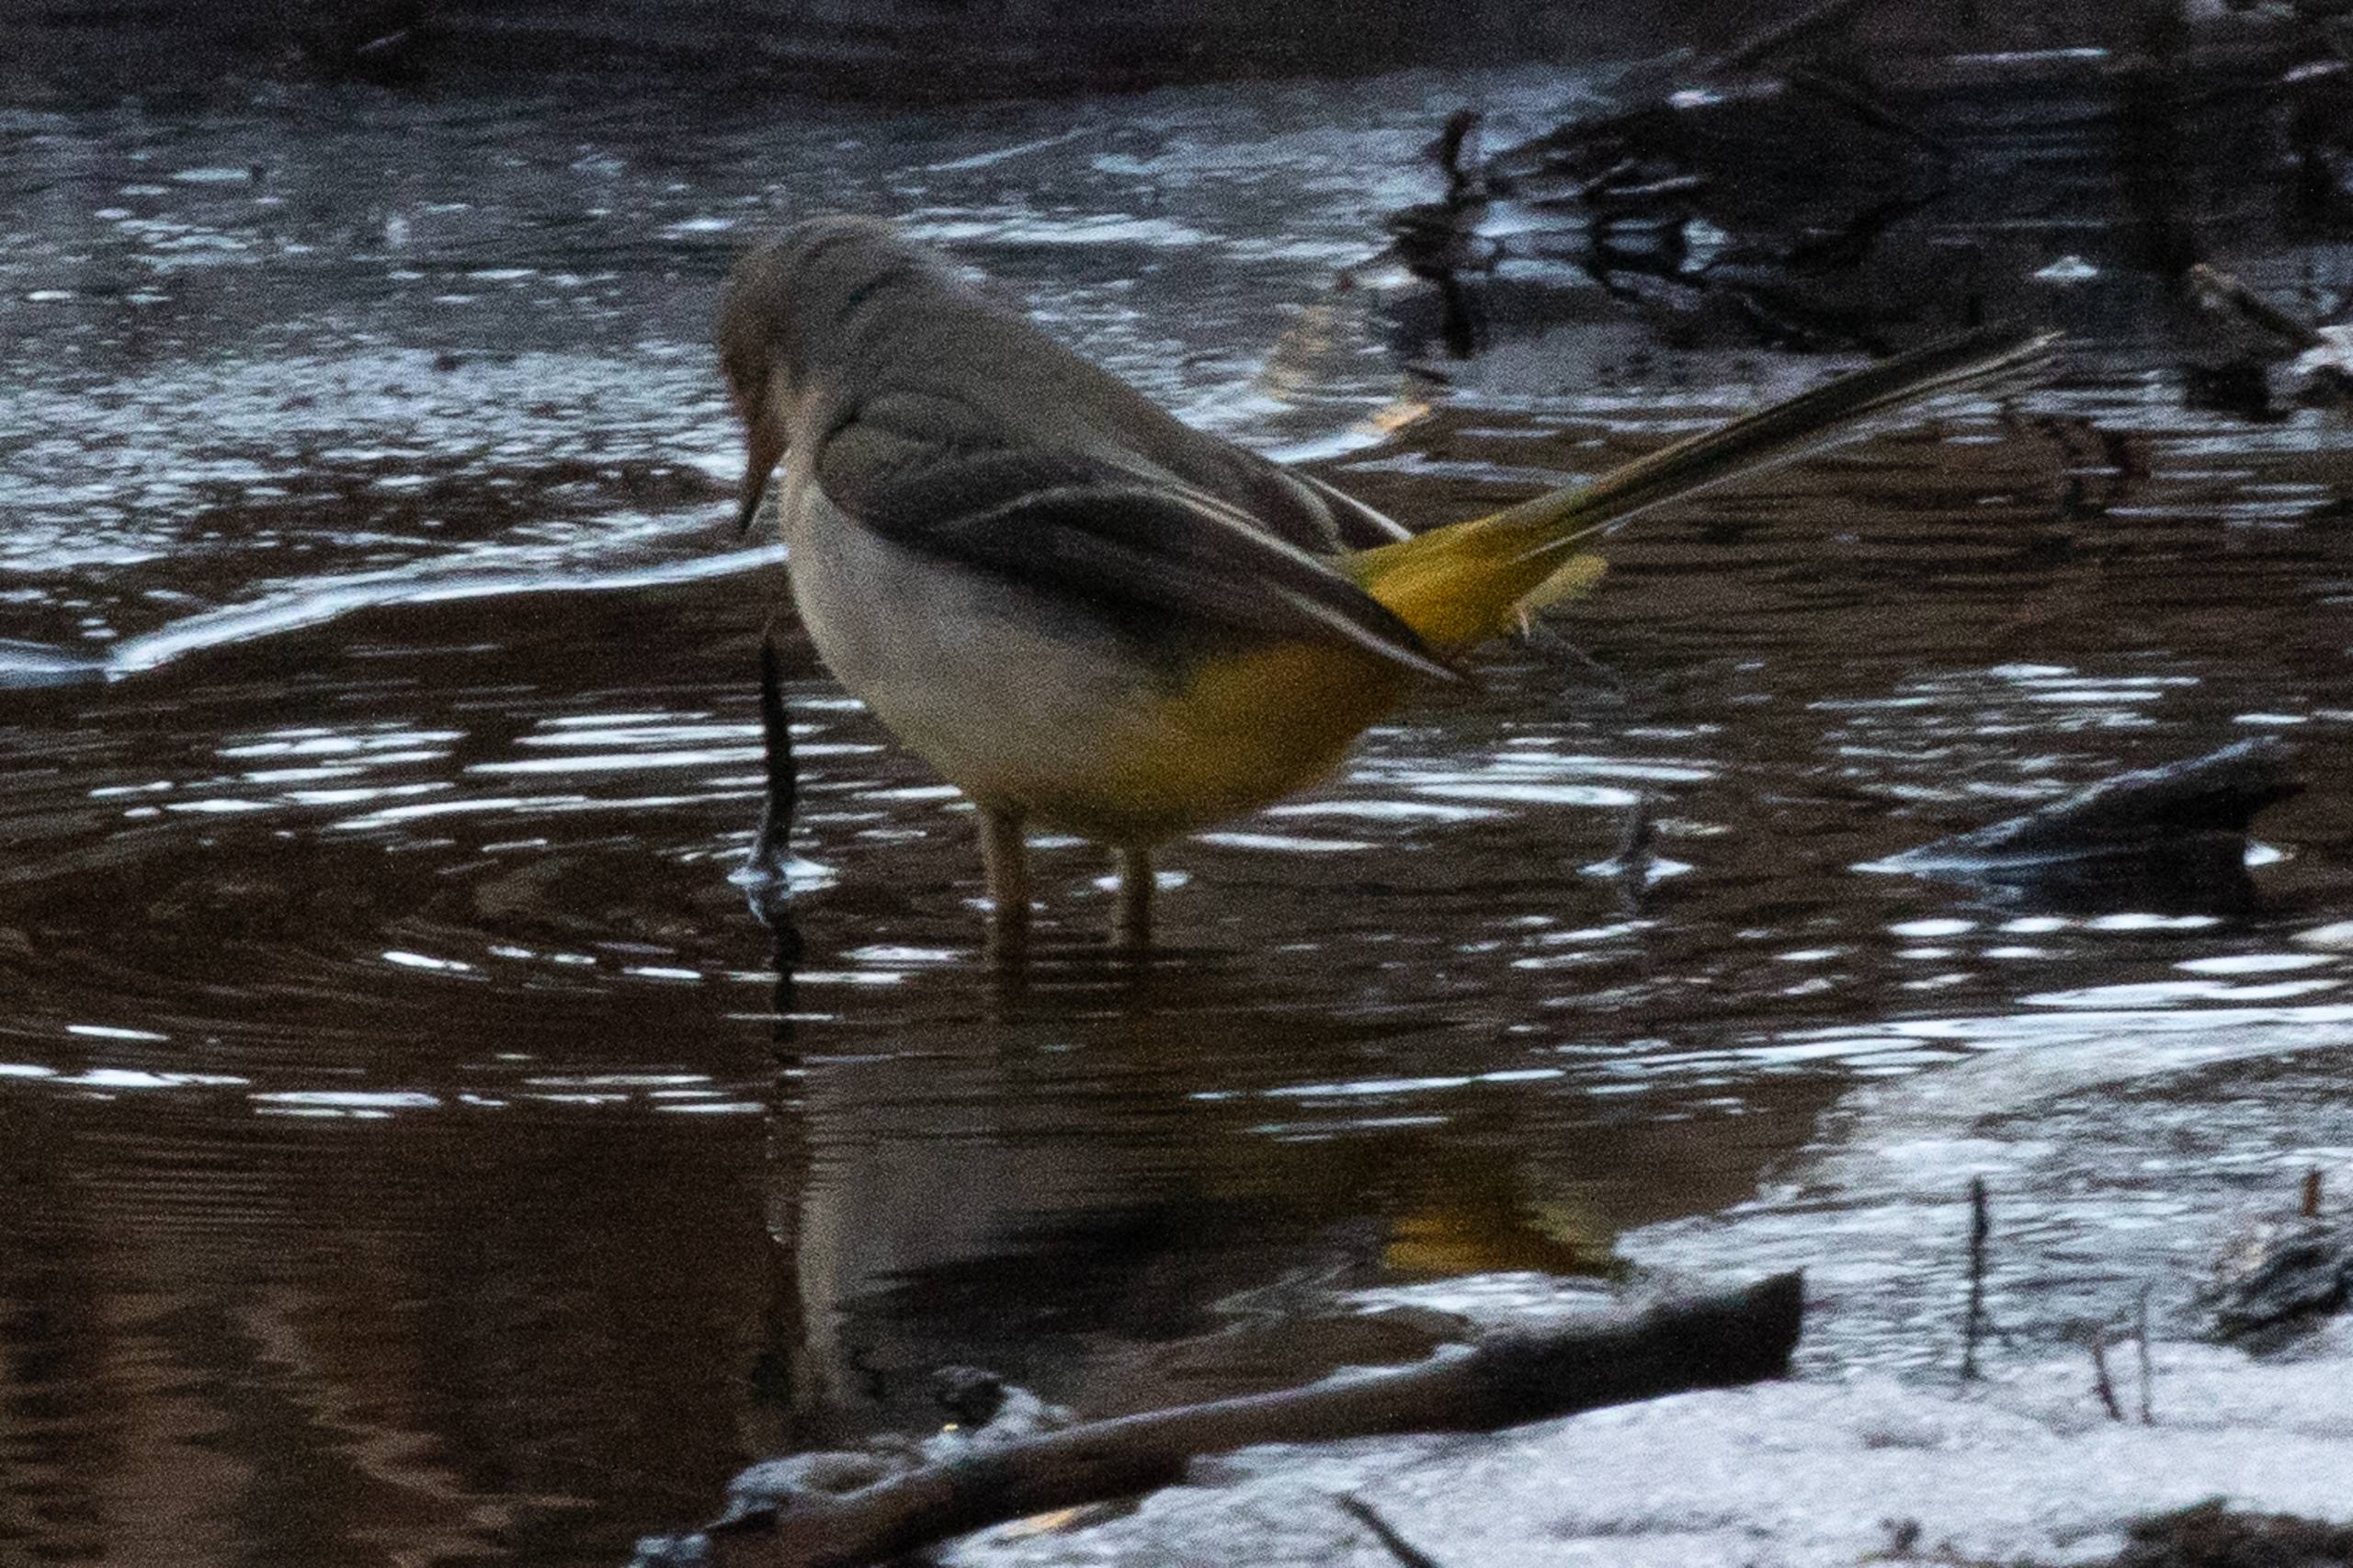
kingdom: Animalia
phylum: Chordata
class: Aves
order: Passeriformes
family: Motacillidae
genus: Motacilla
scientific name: Motacilla cinerea
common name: Bjergvipstjert
